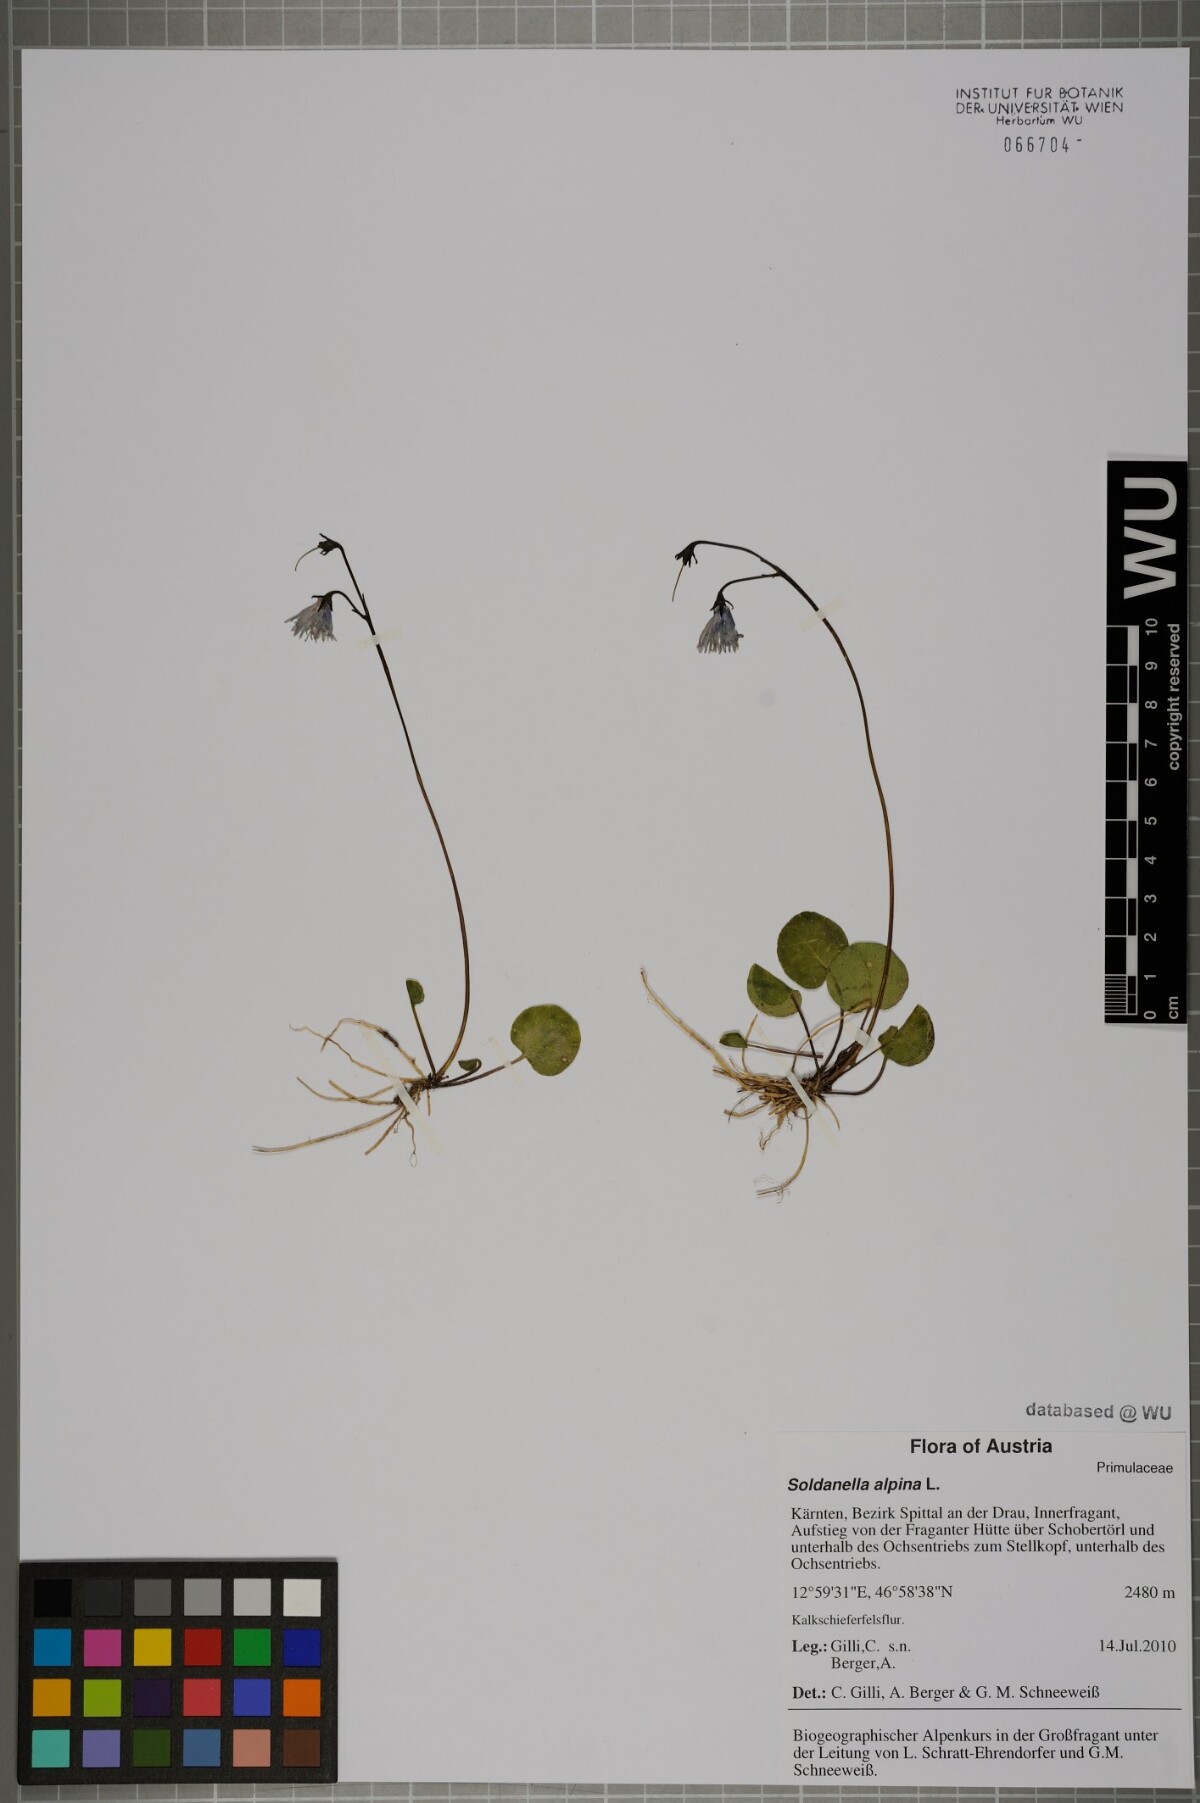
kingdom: Plantae
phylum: Tracheophyta
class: Magnoliopsida
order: Ericales
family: Primulaceae
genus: Soldanella
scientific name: Soldanella alpina
